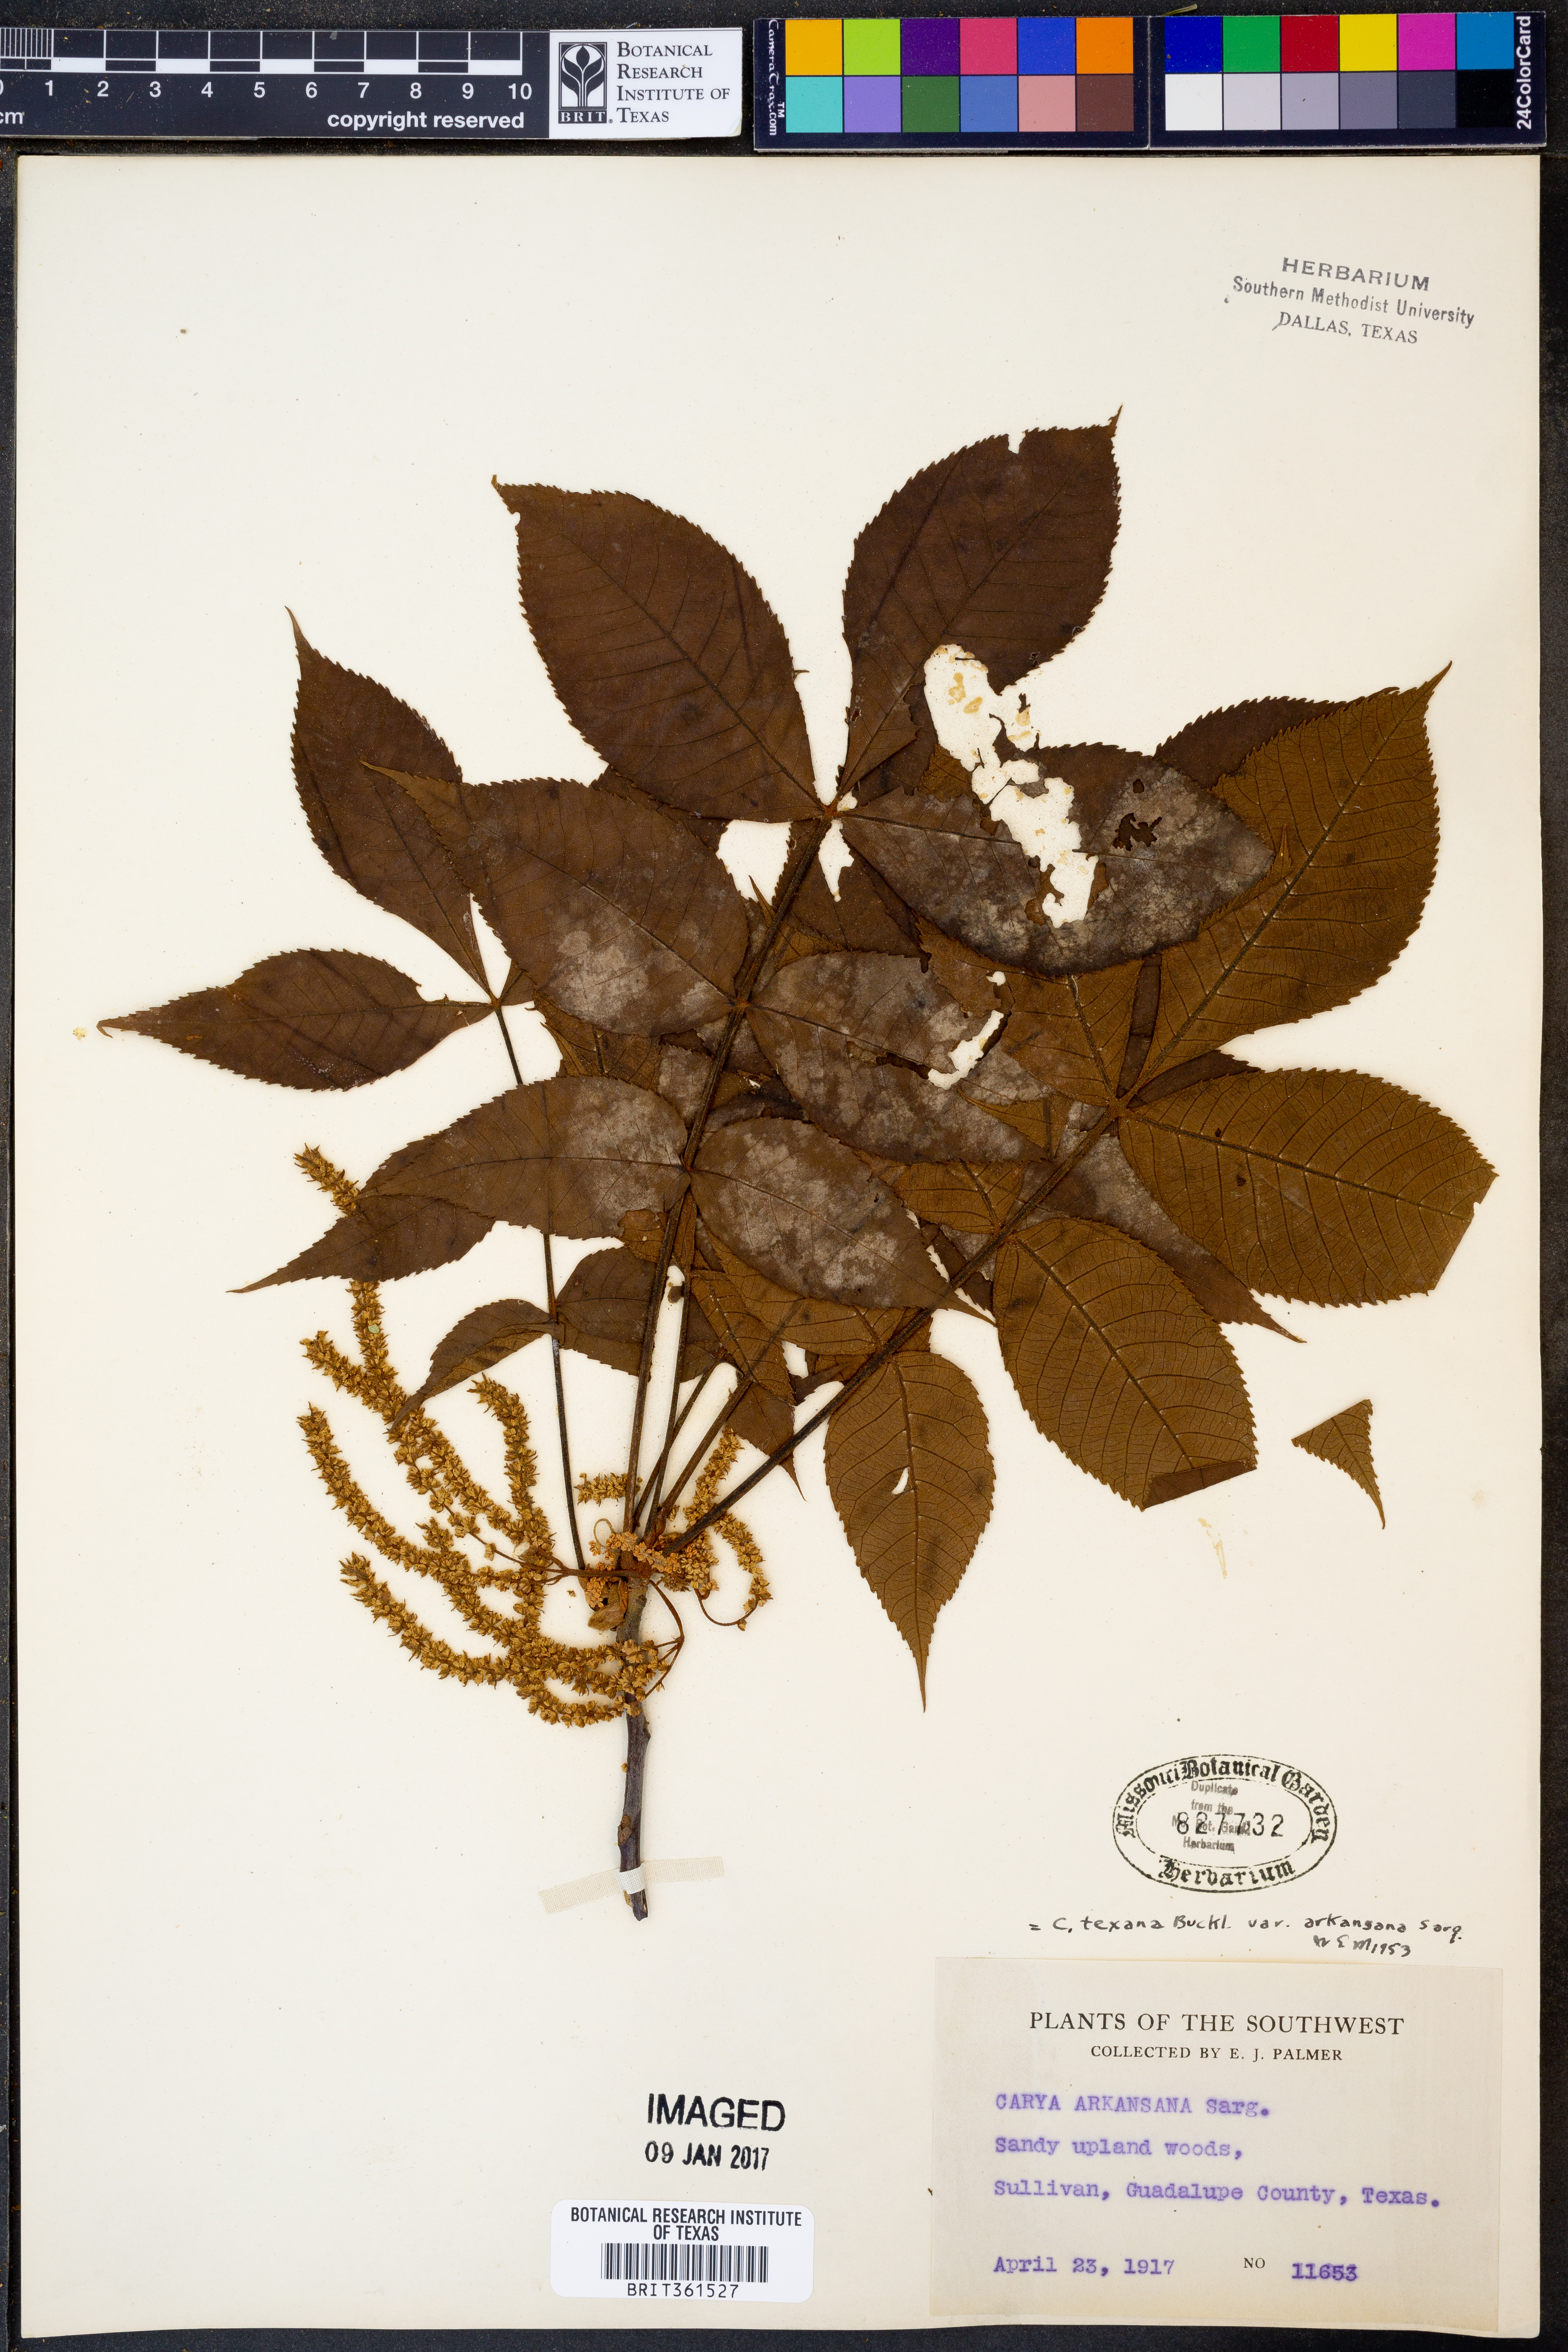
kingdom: Plantae
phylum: Tracheophyta
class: Magnoliopsida
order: Fagales
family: Juglandaceae
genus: Carya
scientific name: Carya texana
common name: Black hickory
